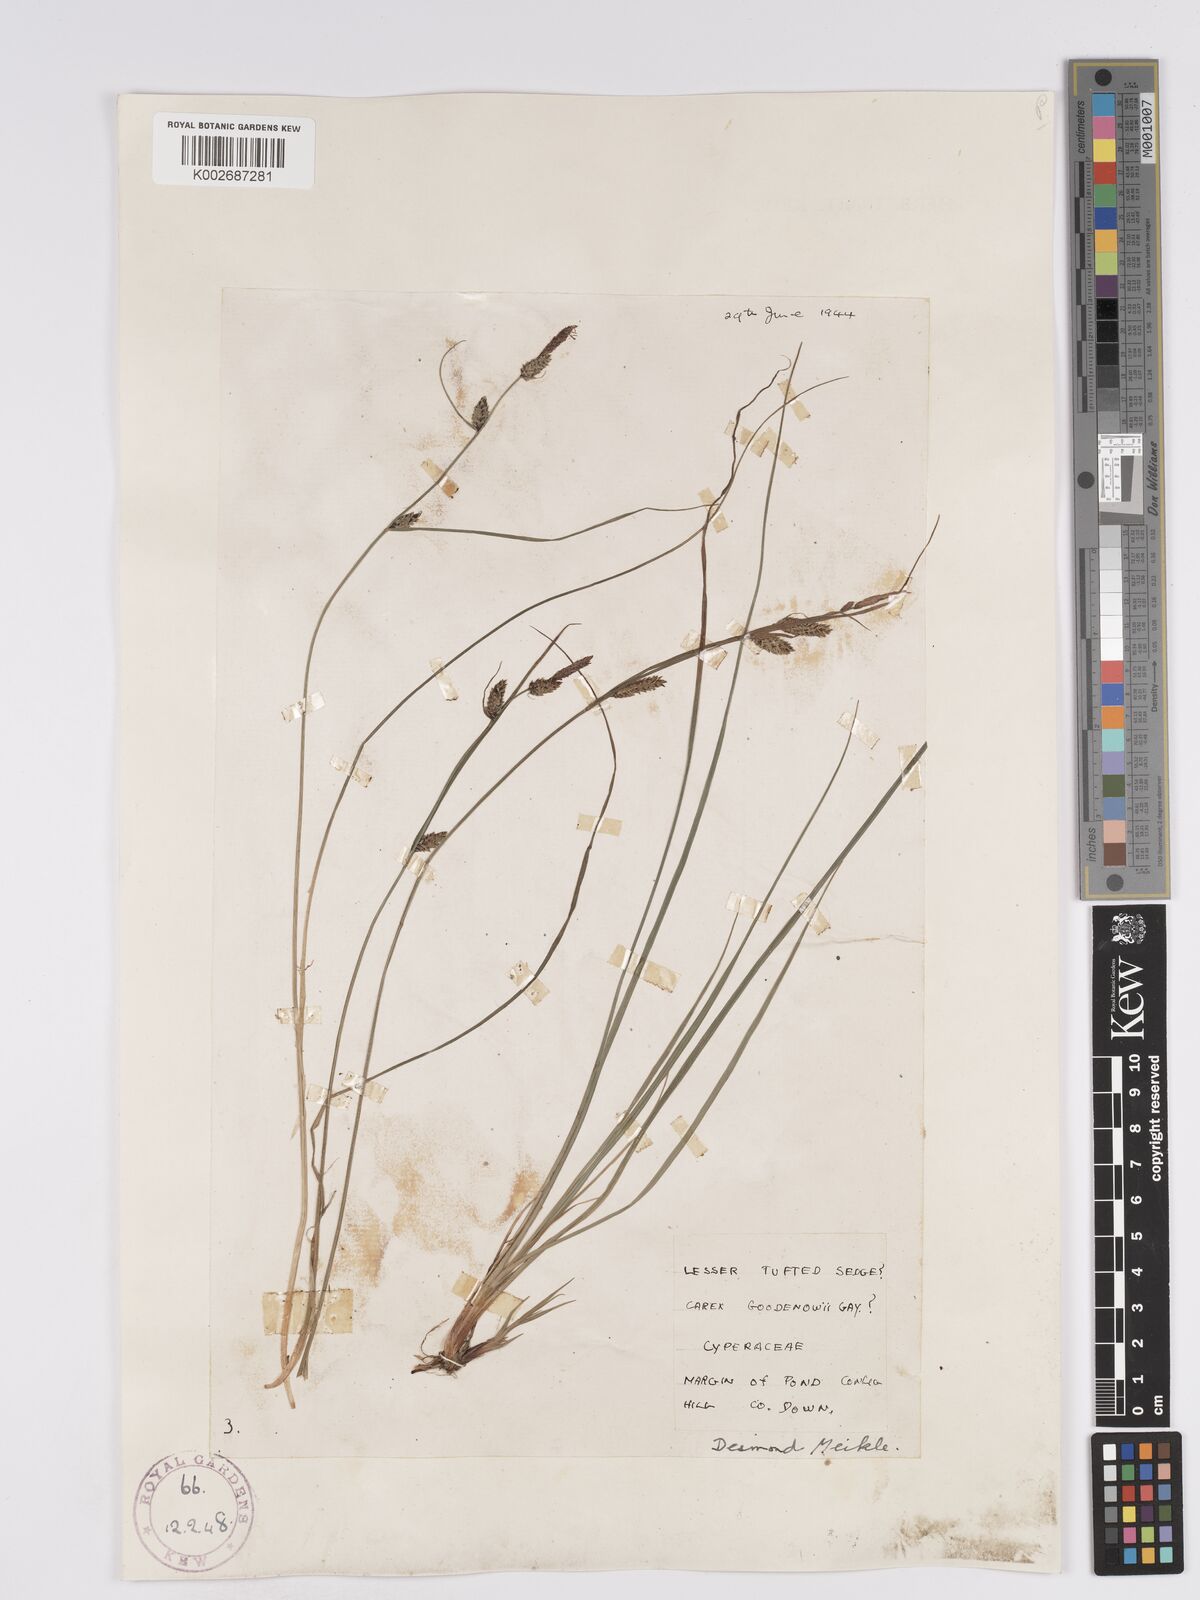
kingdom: Plantae
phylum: Tracheophyta
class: Liliopsida
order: Poales
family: Cyperaceae
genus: Carex
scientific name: Carex nigra
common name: Common sedge
